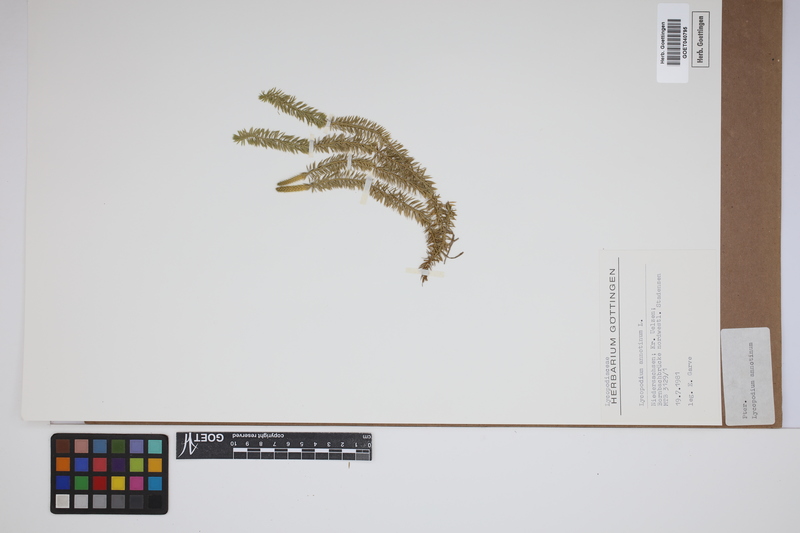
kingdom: Plantae
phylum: Tracheophyta
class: Lycopodiopsida
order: Lycopodiales
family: Lycopodiaceae
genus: Spinulum
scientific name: Spinulum annotinum
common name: Interrupted club-moss
